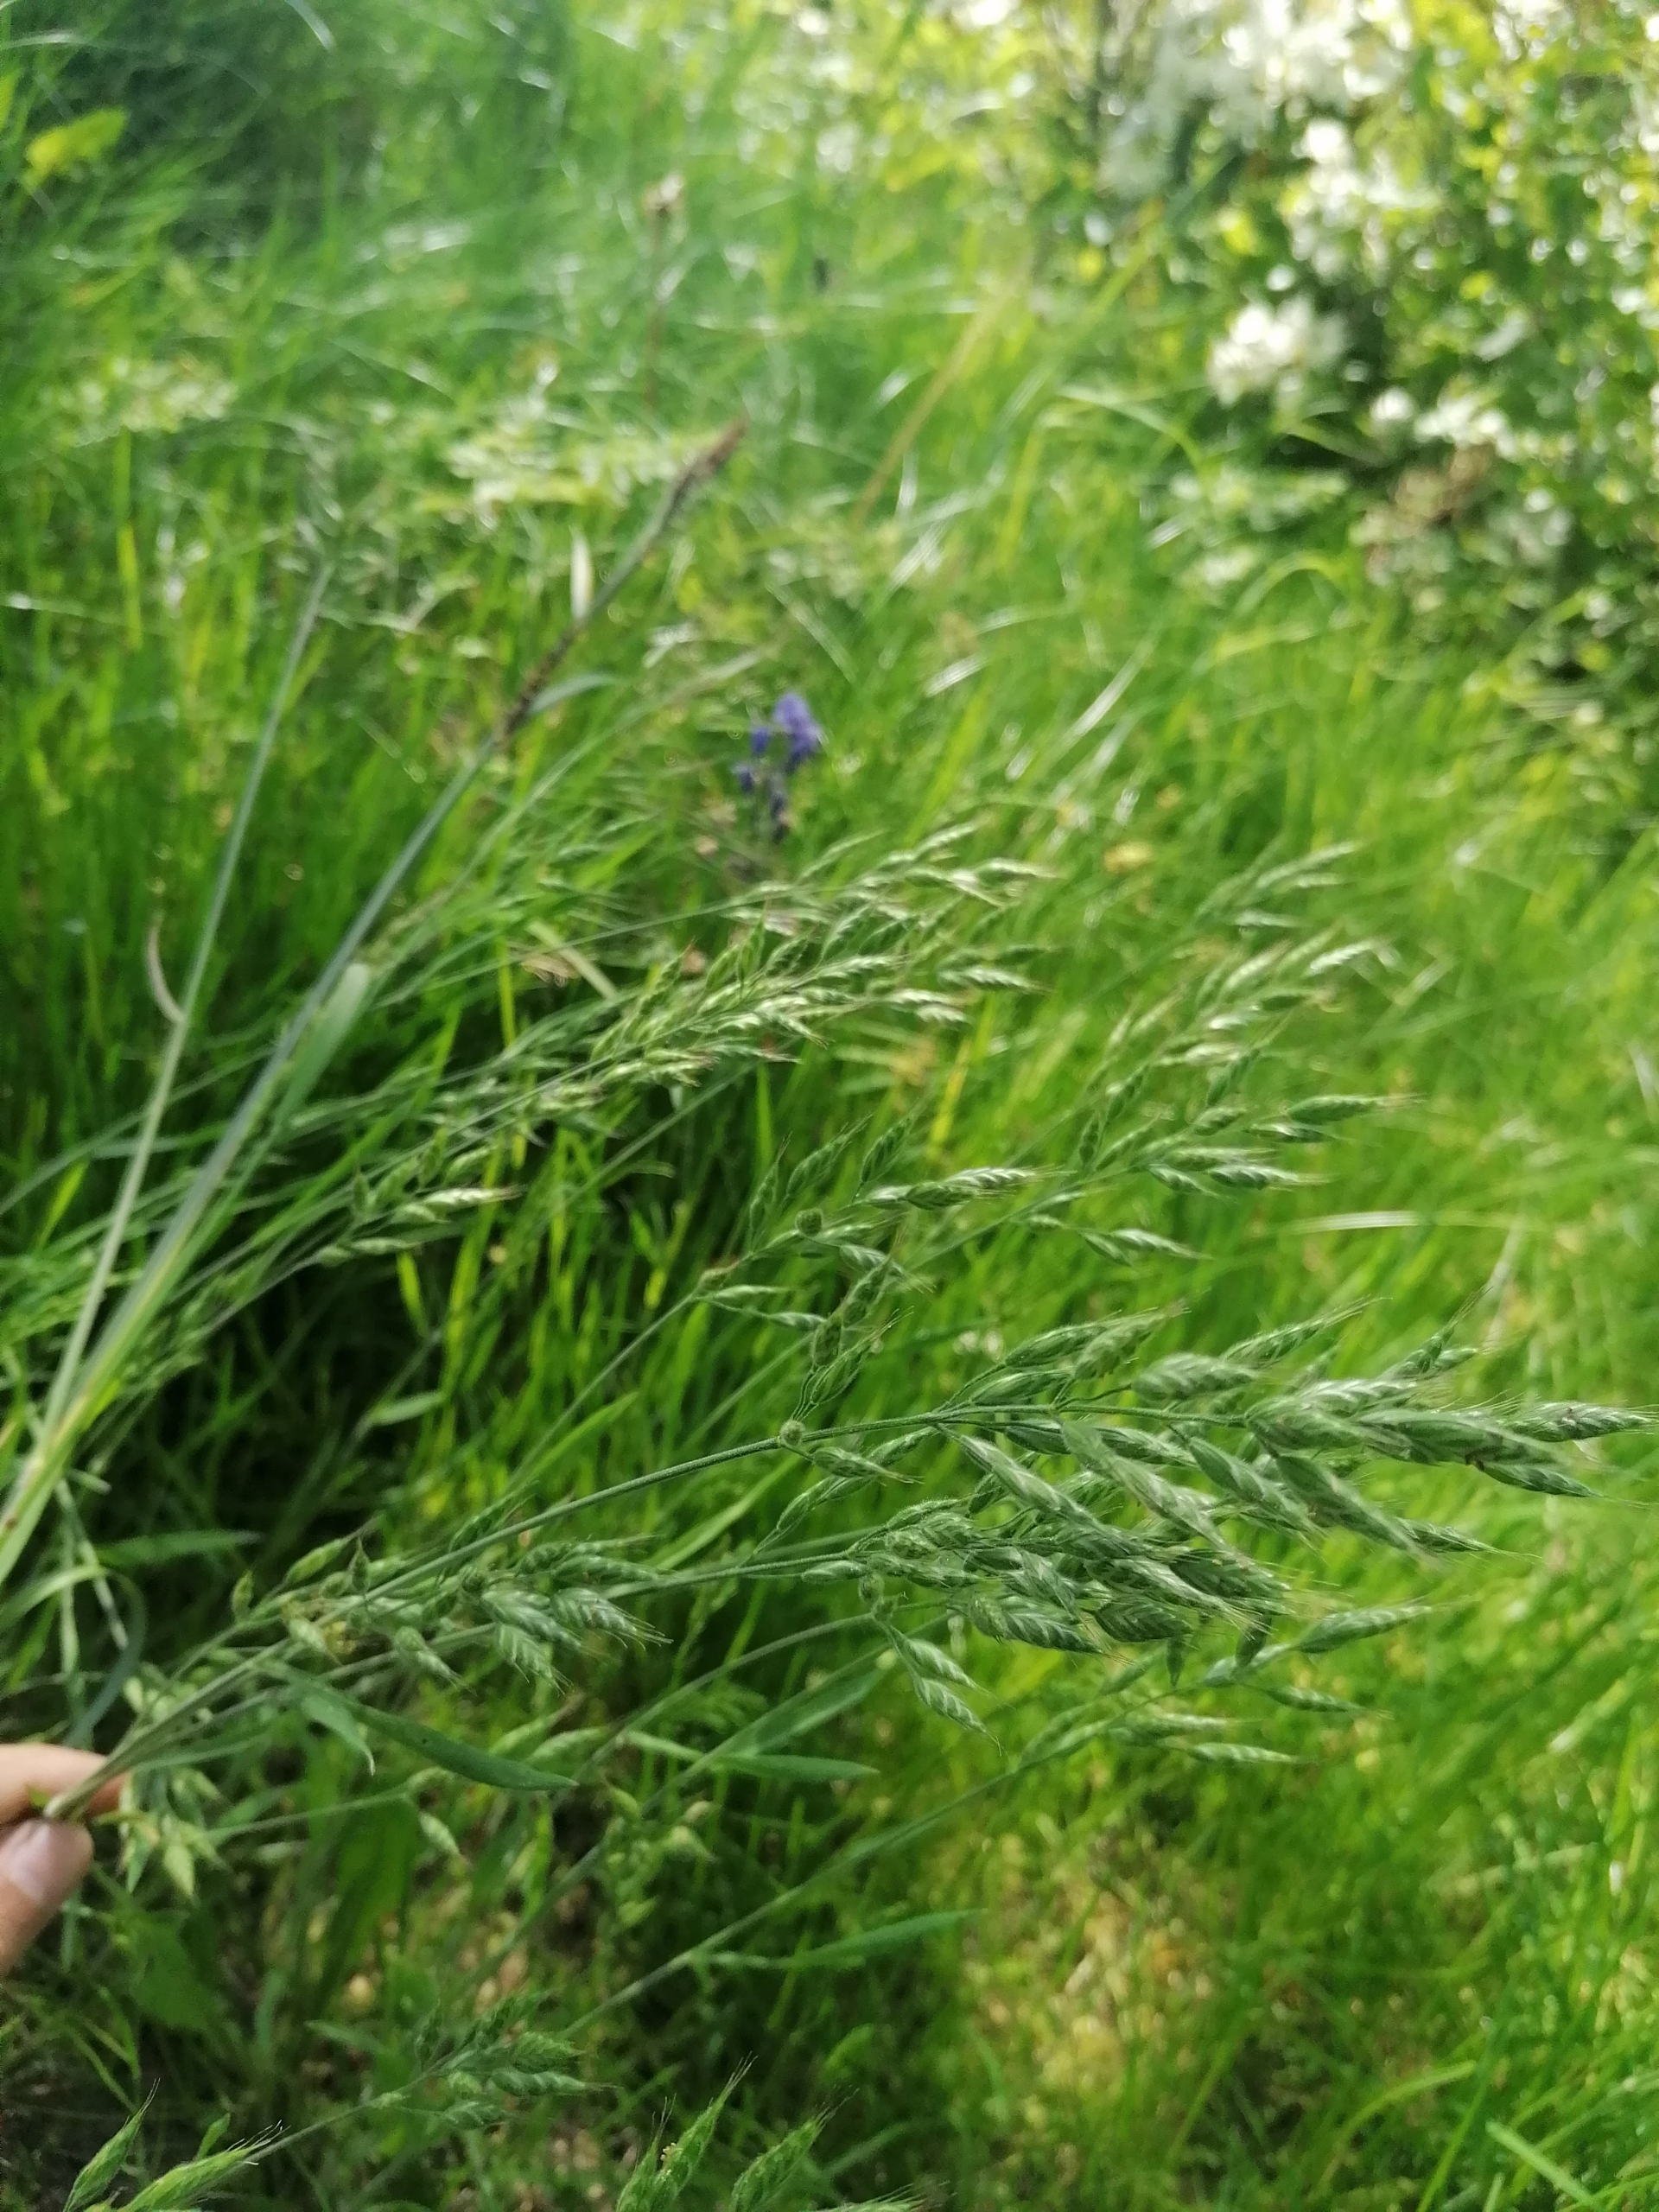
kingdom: Plantae
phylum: Tracheophyta
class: Liliopsida
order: Poales
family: Poaceae
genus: Bromus
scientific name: Bromus hordeaceus
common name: Blød hejre
